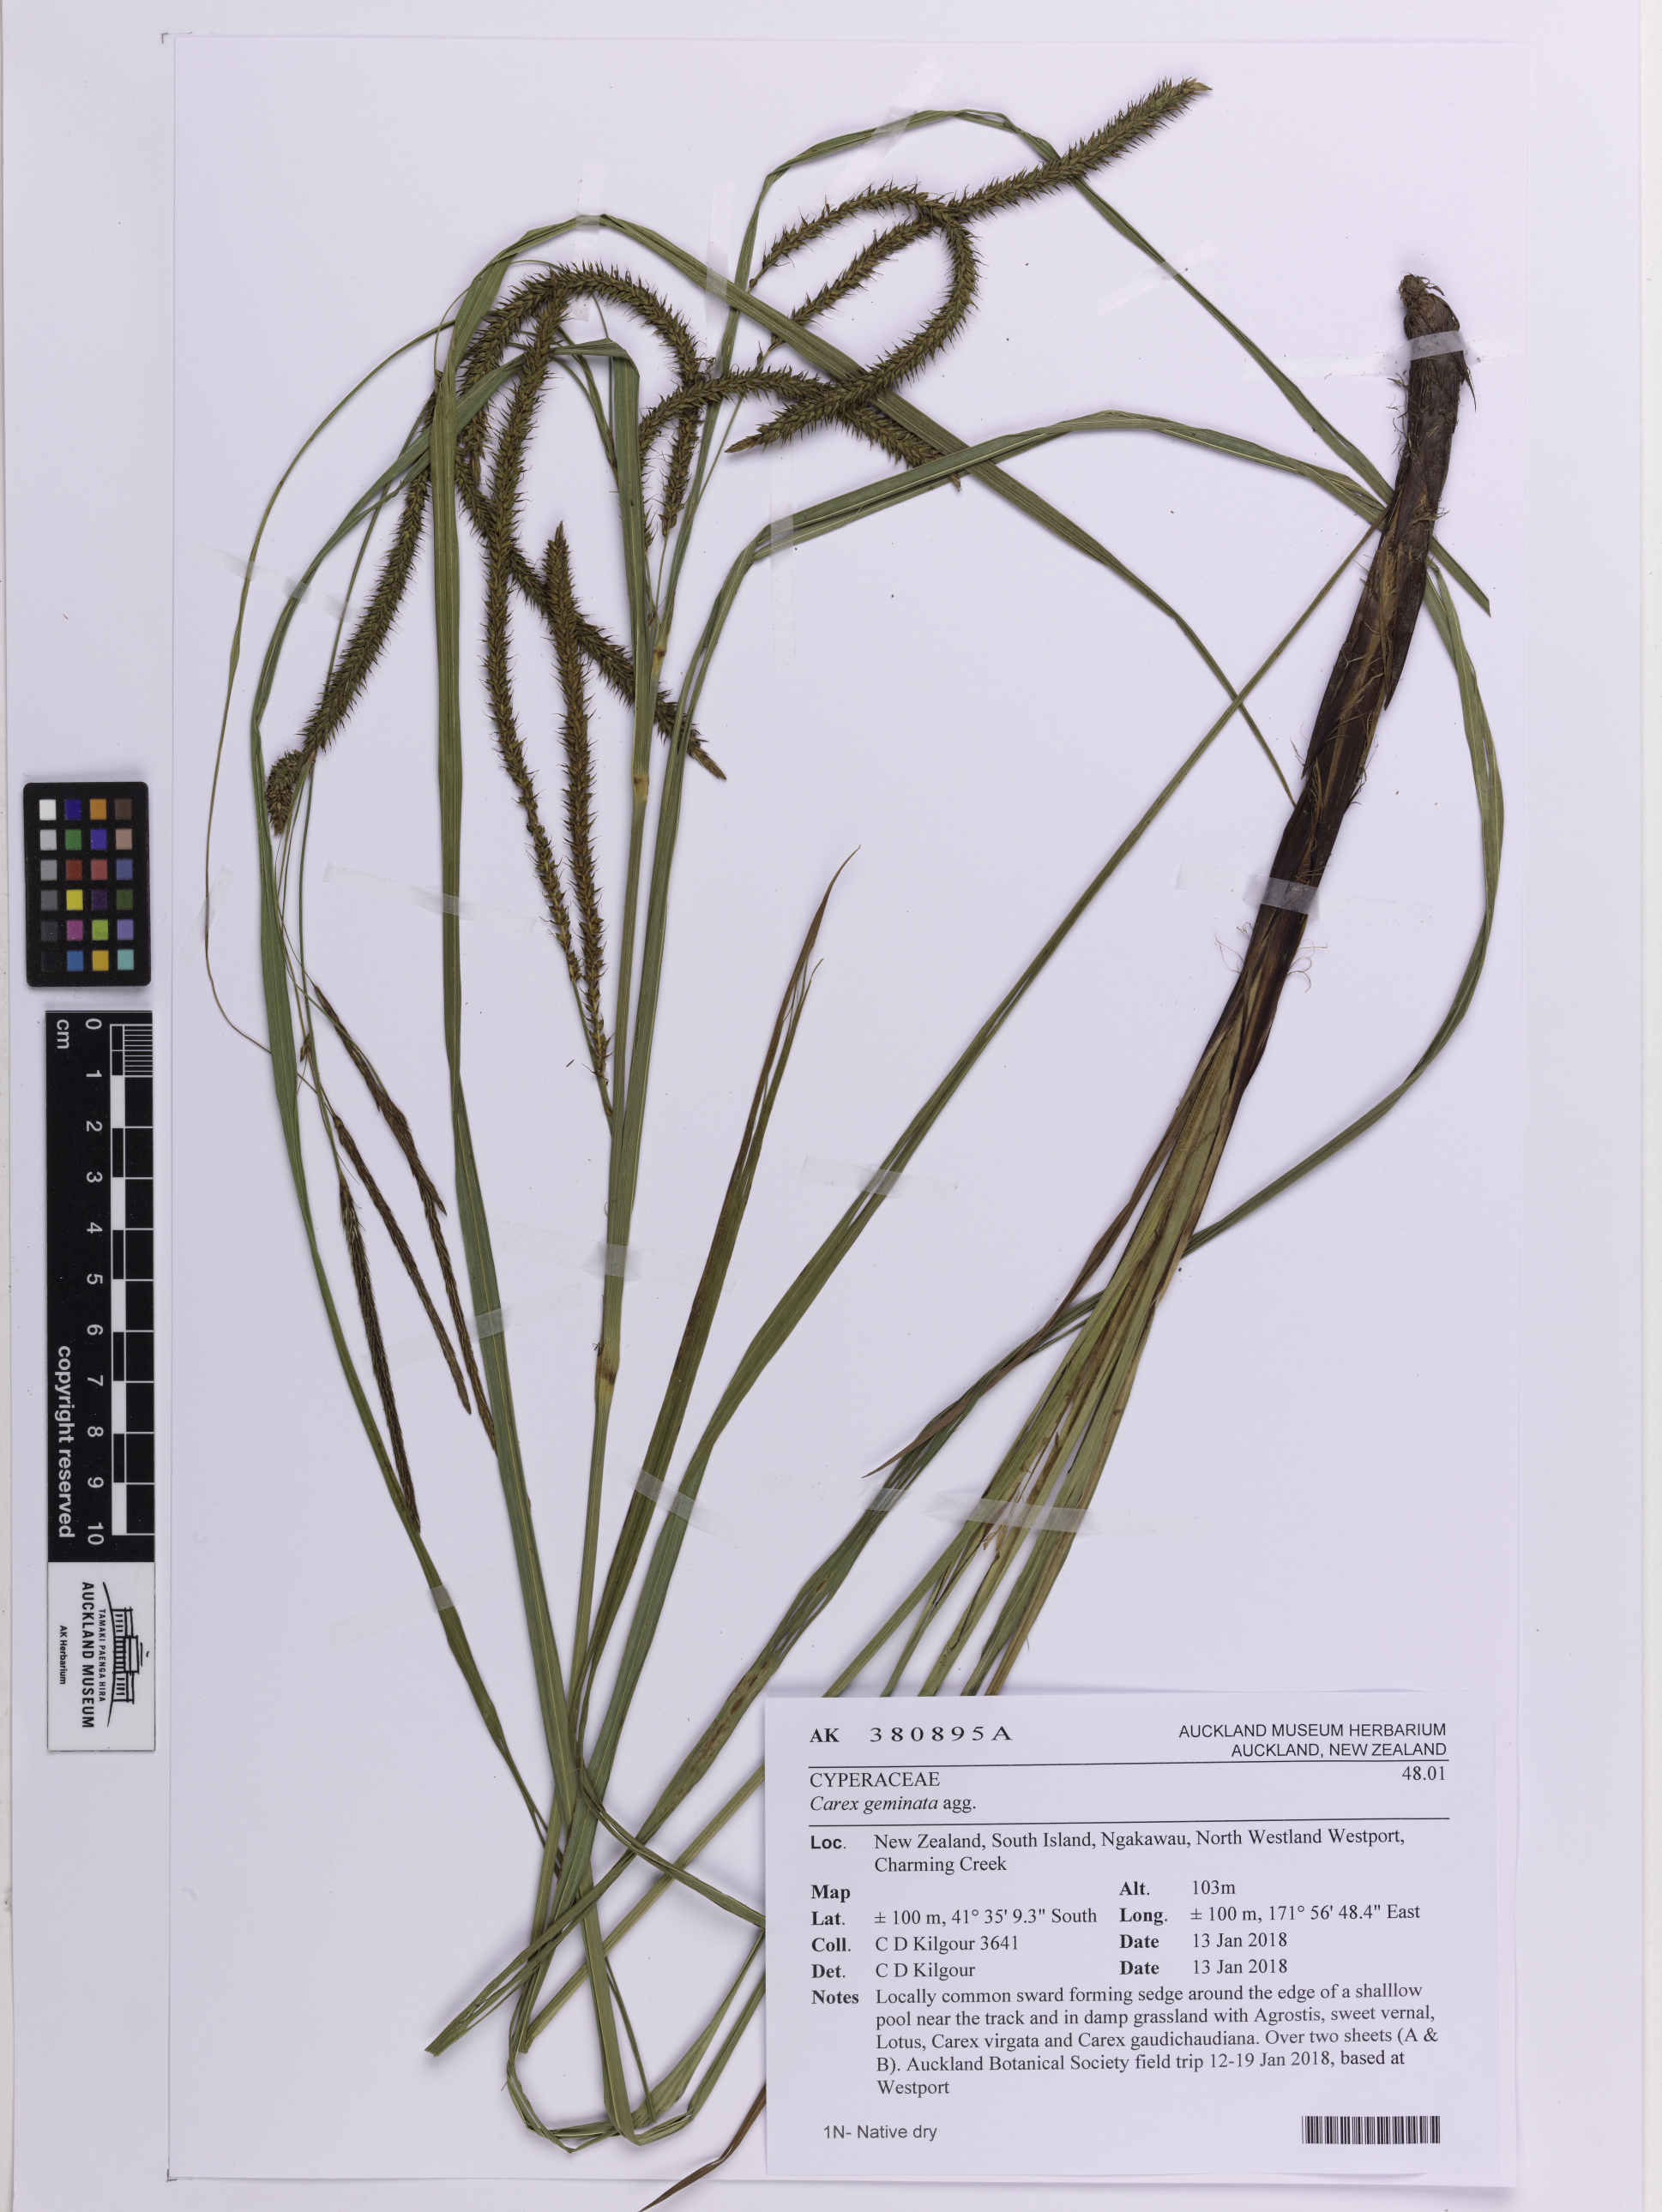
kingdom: Plantae
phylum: Tracheophyta
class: Liliopsida
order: Poales
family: Cyperaceae
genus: Carex
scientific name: Carex geminata
